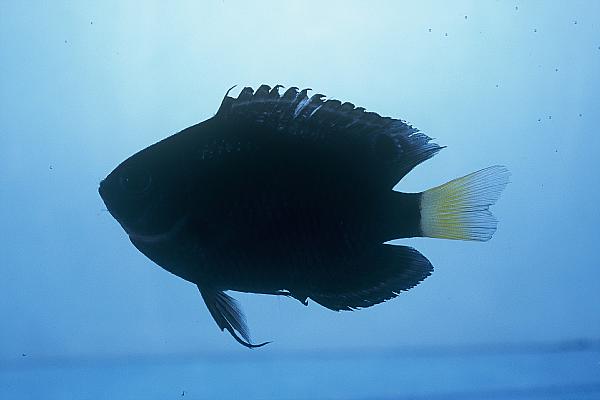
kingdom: Animalia
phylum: Chordata
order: Perciformes
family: Pomacentridae
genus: Pomacentrus
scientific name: Pomacentrus trichrourus
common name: Paletail damsel
